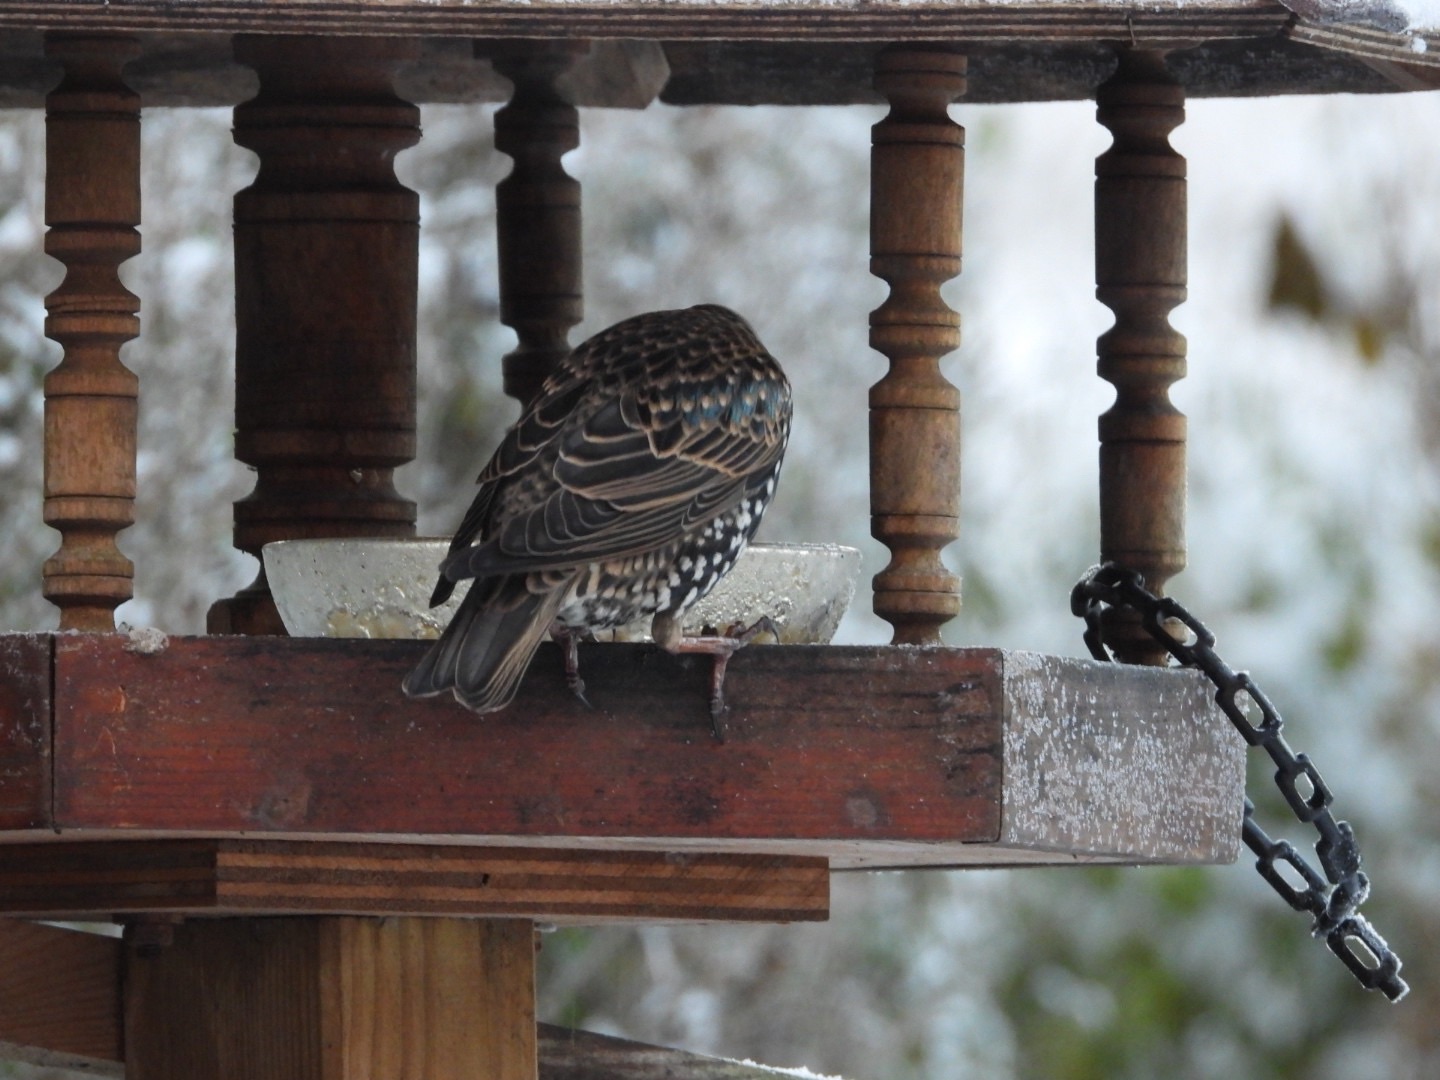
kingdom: Animalia
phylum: Chordata
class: Aves
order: Passeriformes
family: Sturnidae
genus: Sturnus
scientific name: Sturnus vulgaris
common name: Stær
